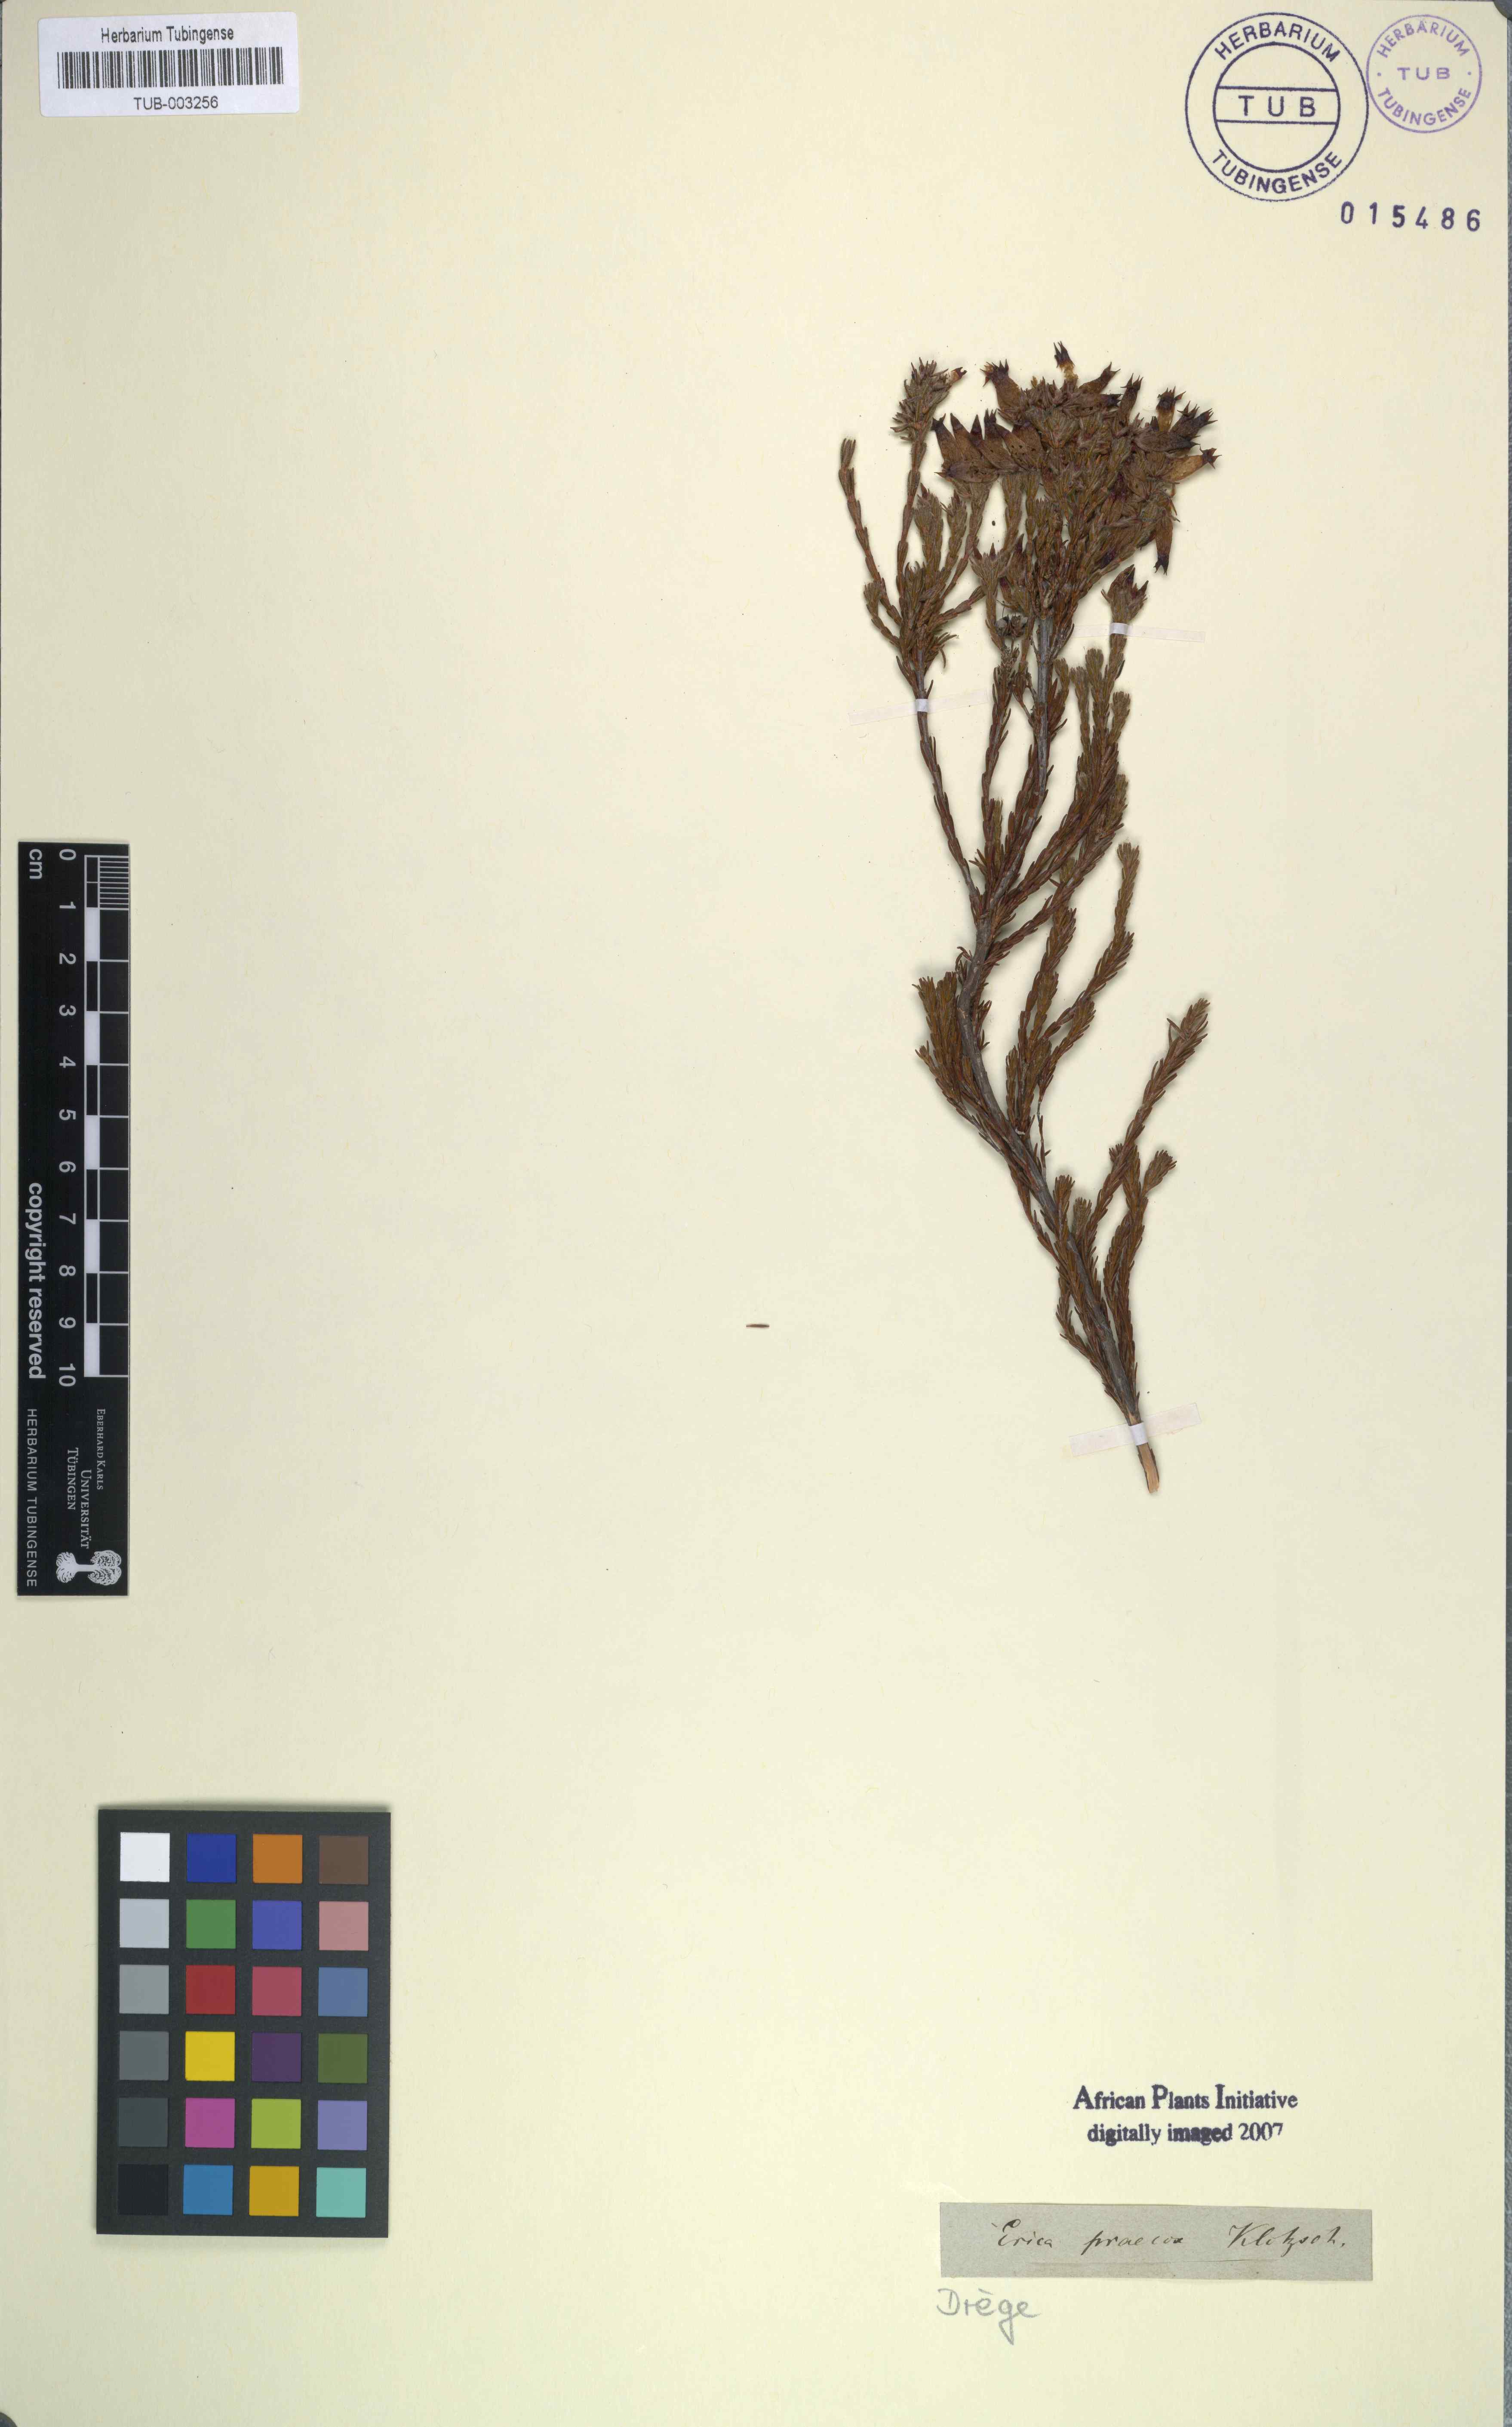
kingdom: Plantae
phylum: Tracheophyta
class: Magnoliopsida
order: Ericales
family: Ericaceae
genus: Erica
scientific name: Erica ventricosa
